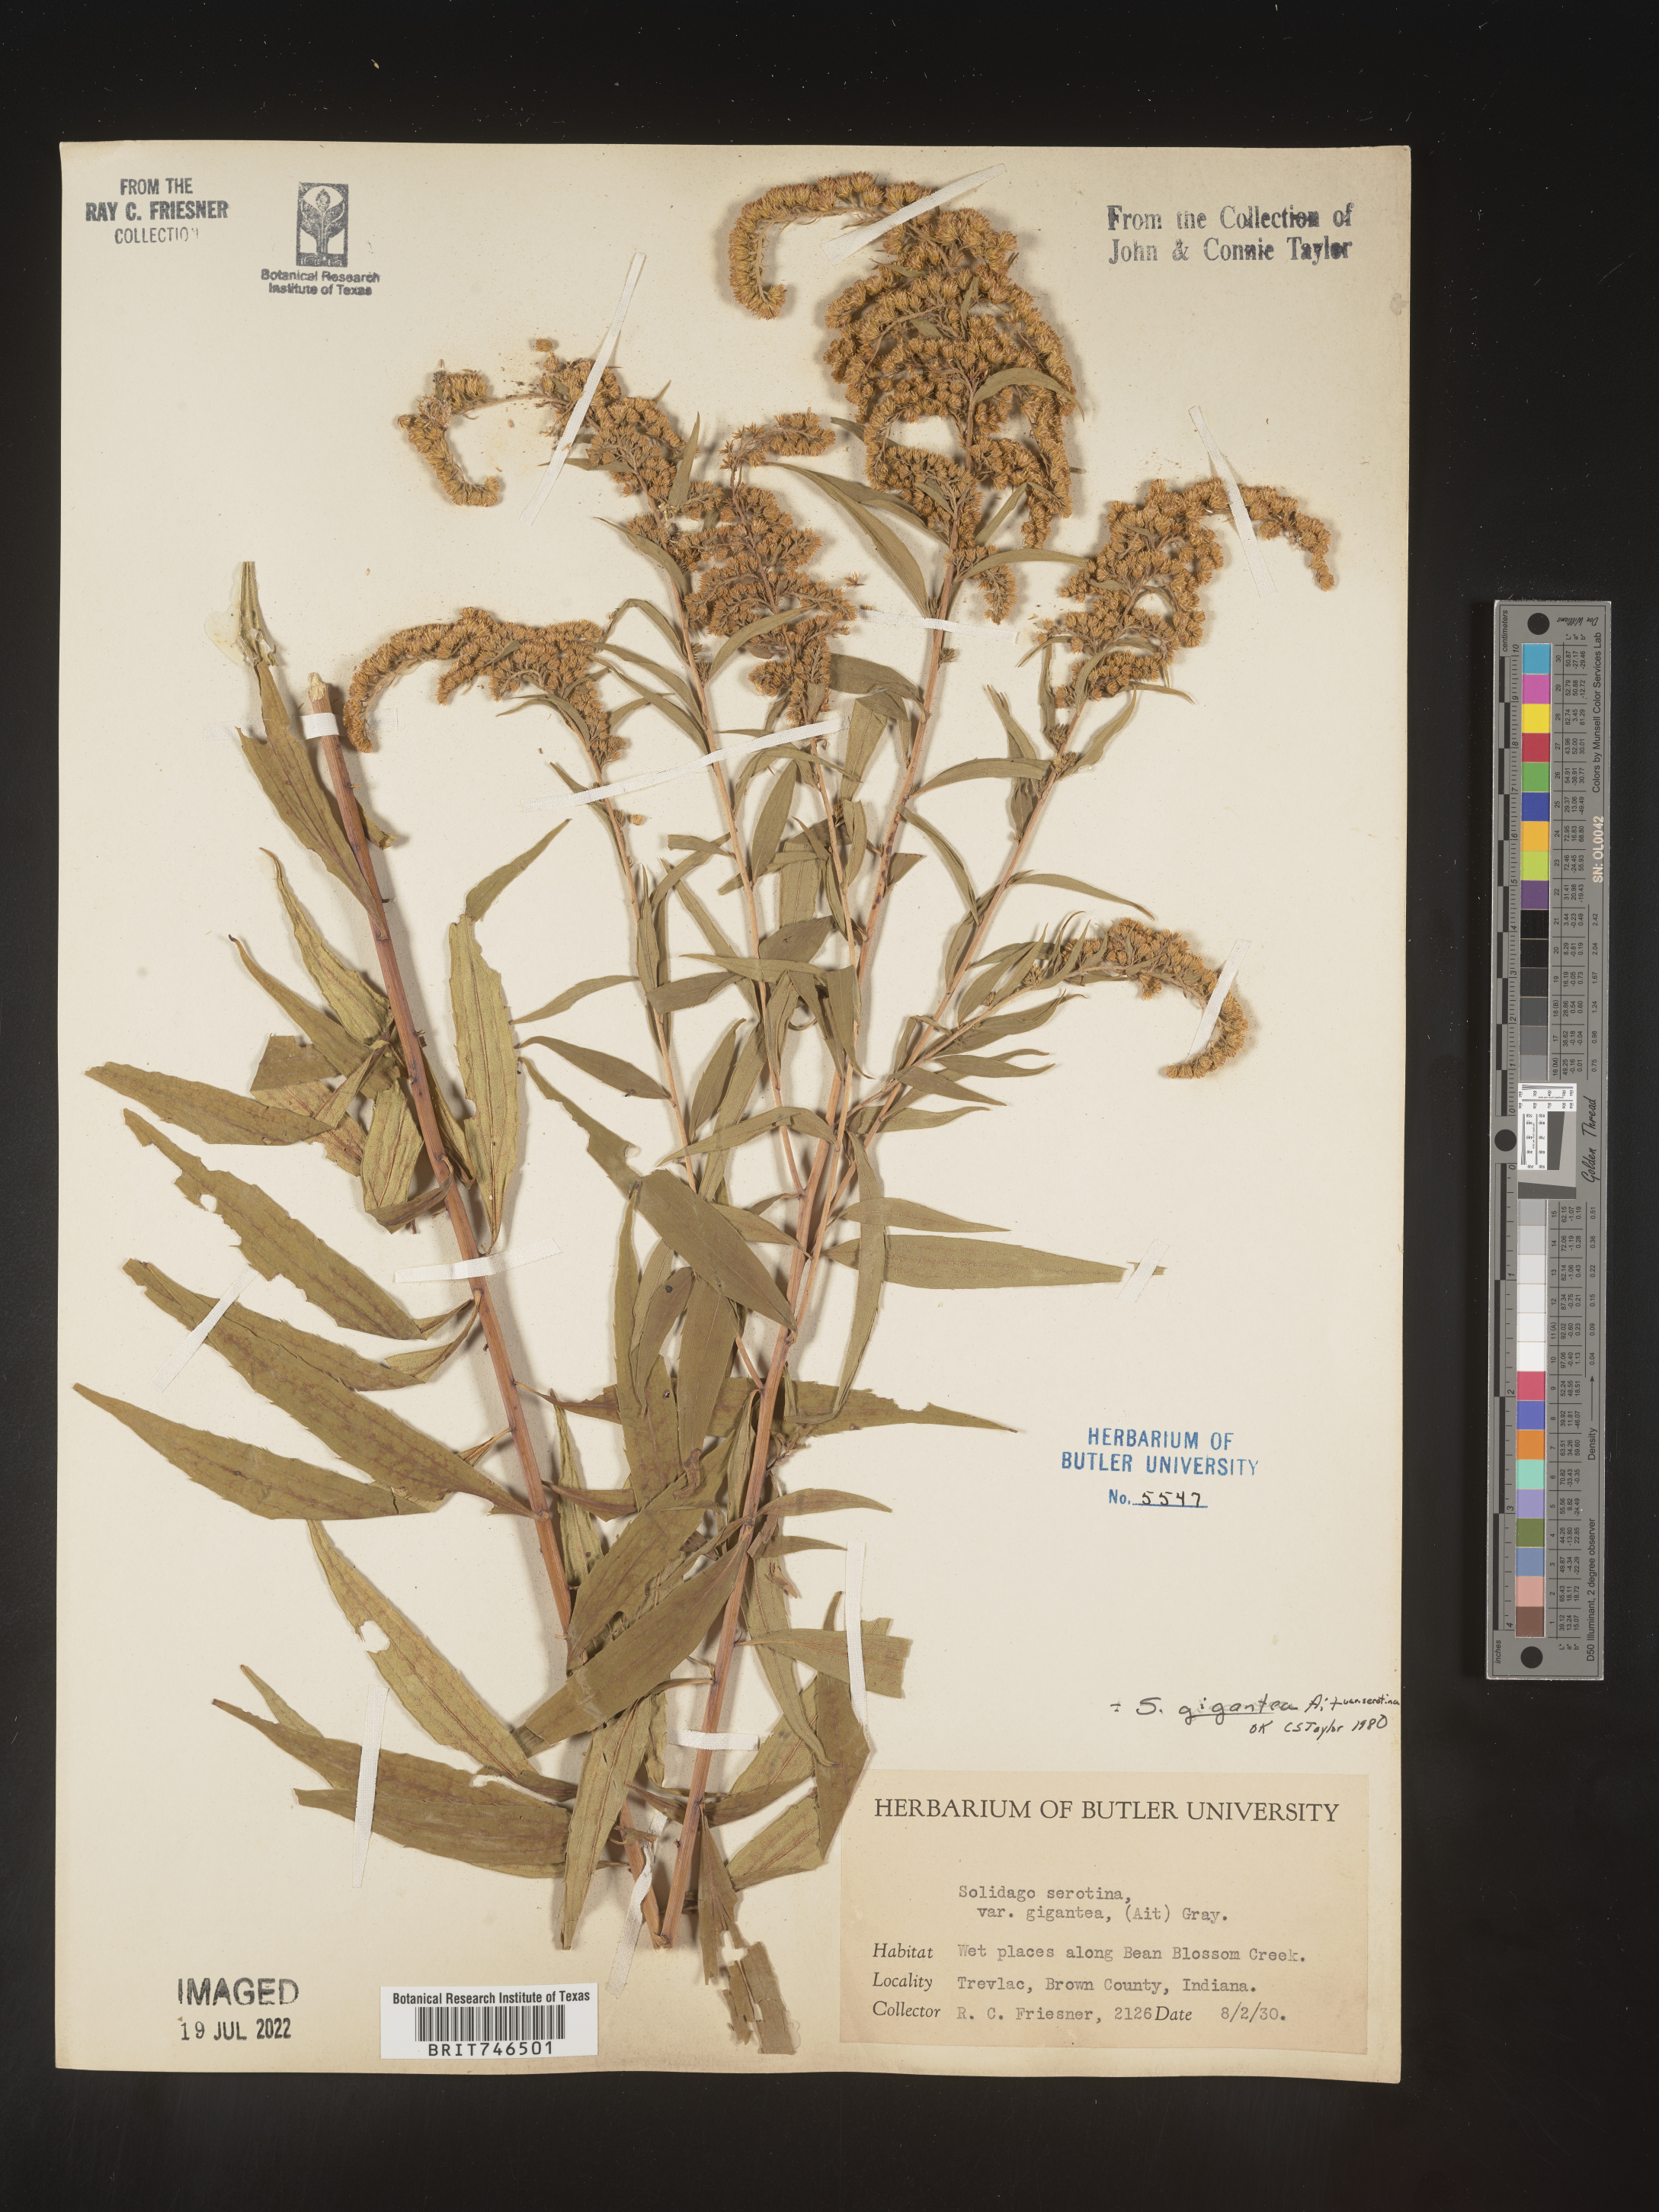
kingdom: Plantae
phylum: Tracheophyta
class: Magnoliopsida
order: Asterales
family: Asteraceae
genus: Solidago
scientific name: Solidago gigantea
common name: Giant goldenrod
